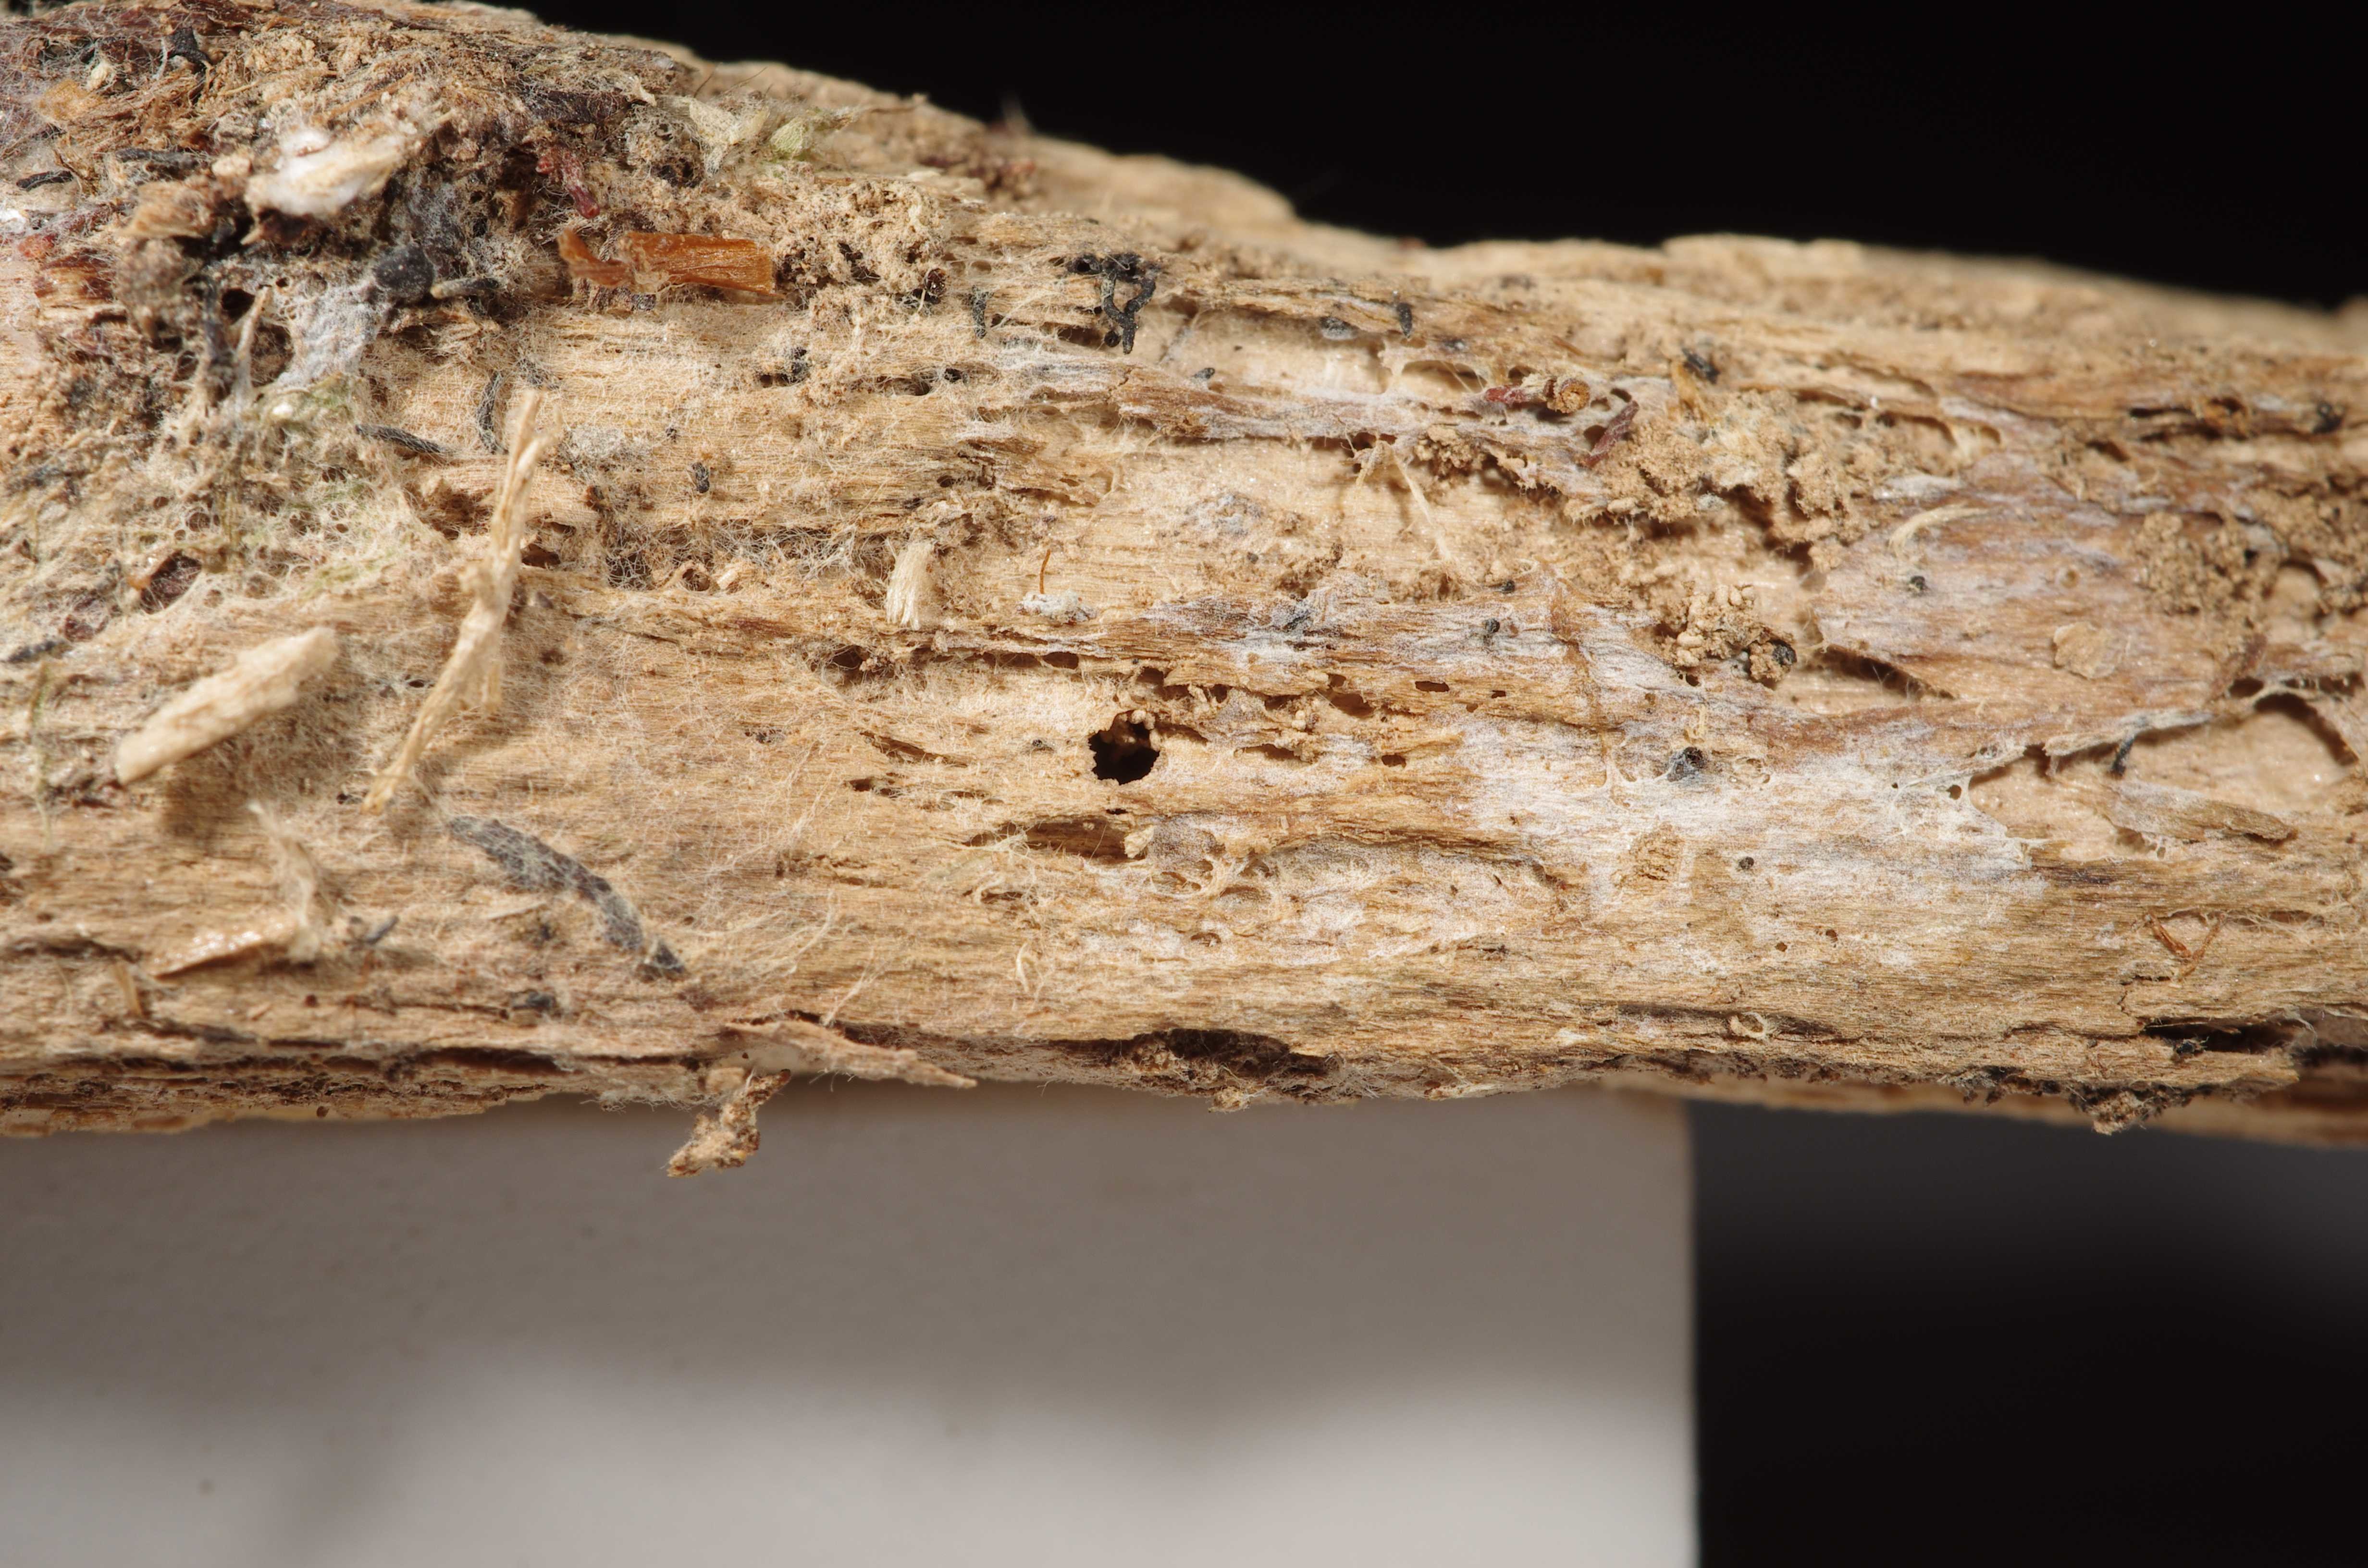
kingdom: Fungi
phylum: Basidiomycota
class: Agaricomycetes
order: Auriculariales
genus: Basidiodendron
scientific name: Basidiodendron caesiocinereum
